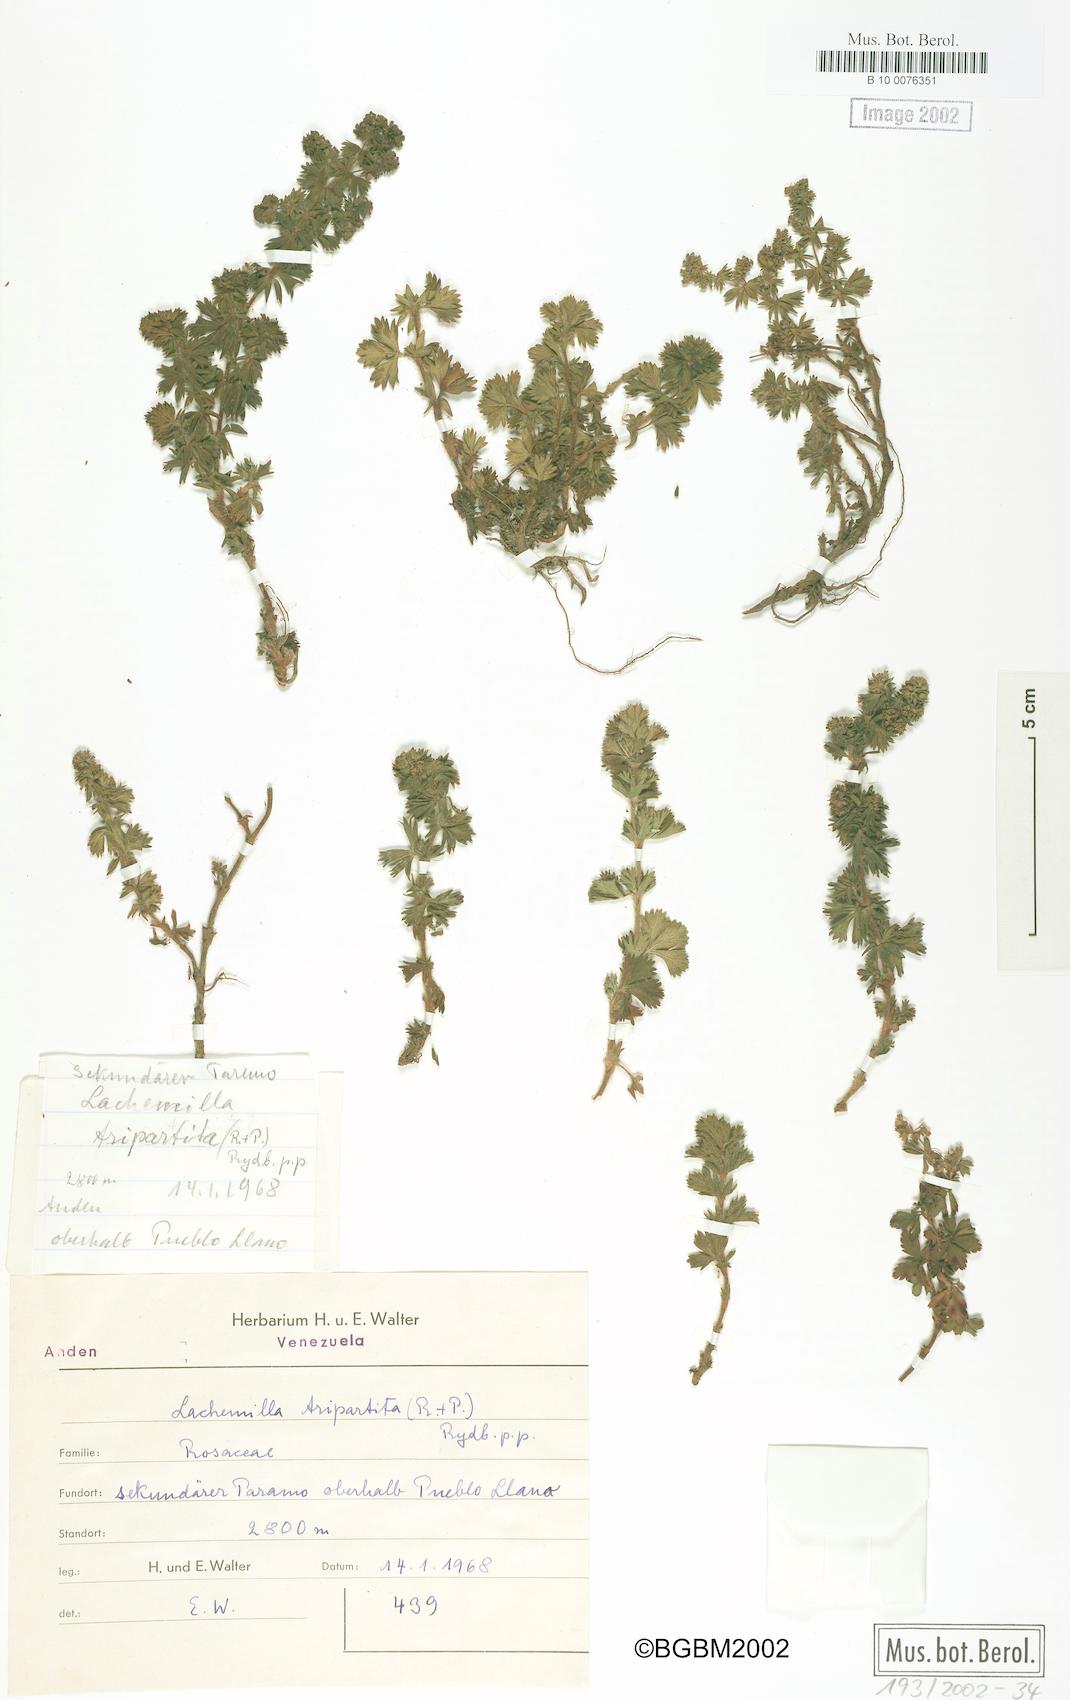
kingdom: Plantae
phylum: Tracheophyta
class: Magnoliopsida
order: Rosales
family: Rosaceae
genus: Lachemilla
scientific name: Lachemilla aphanoides
